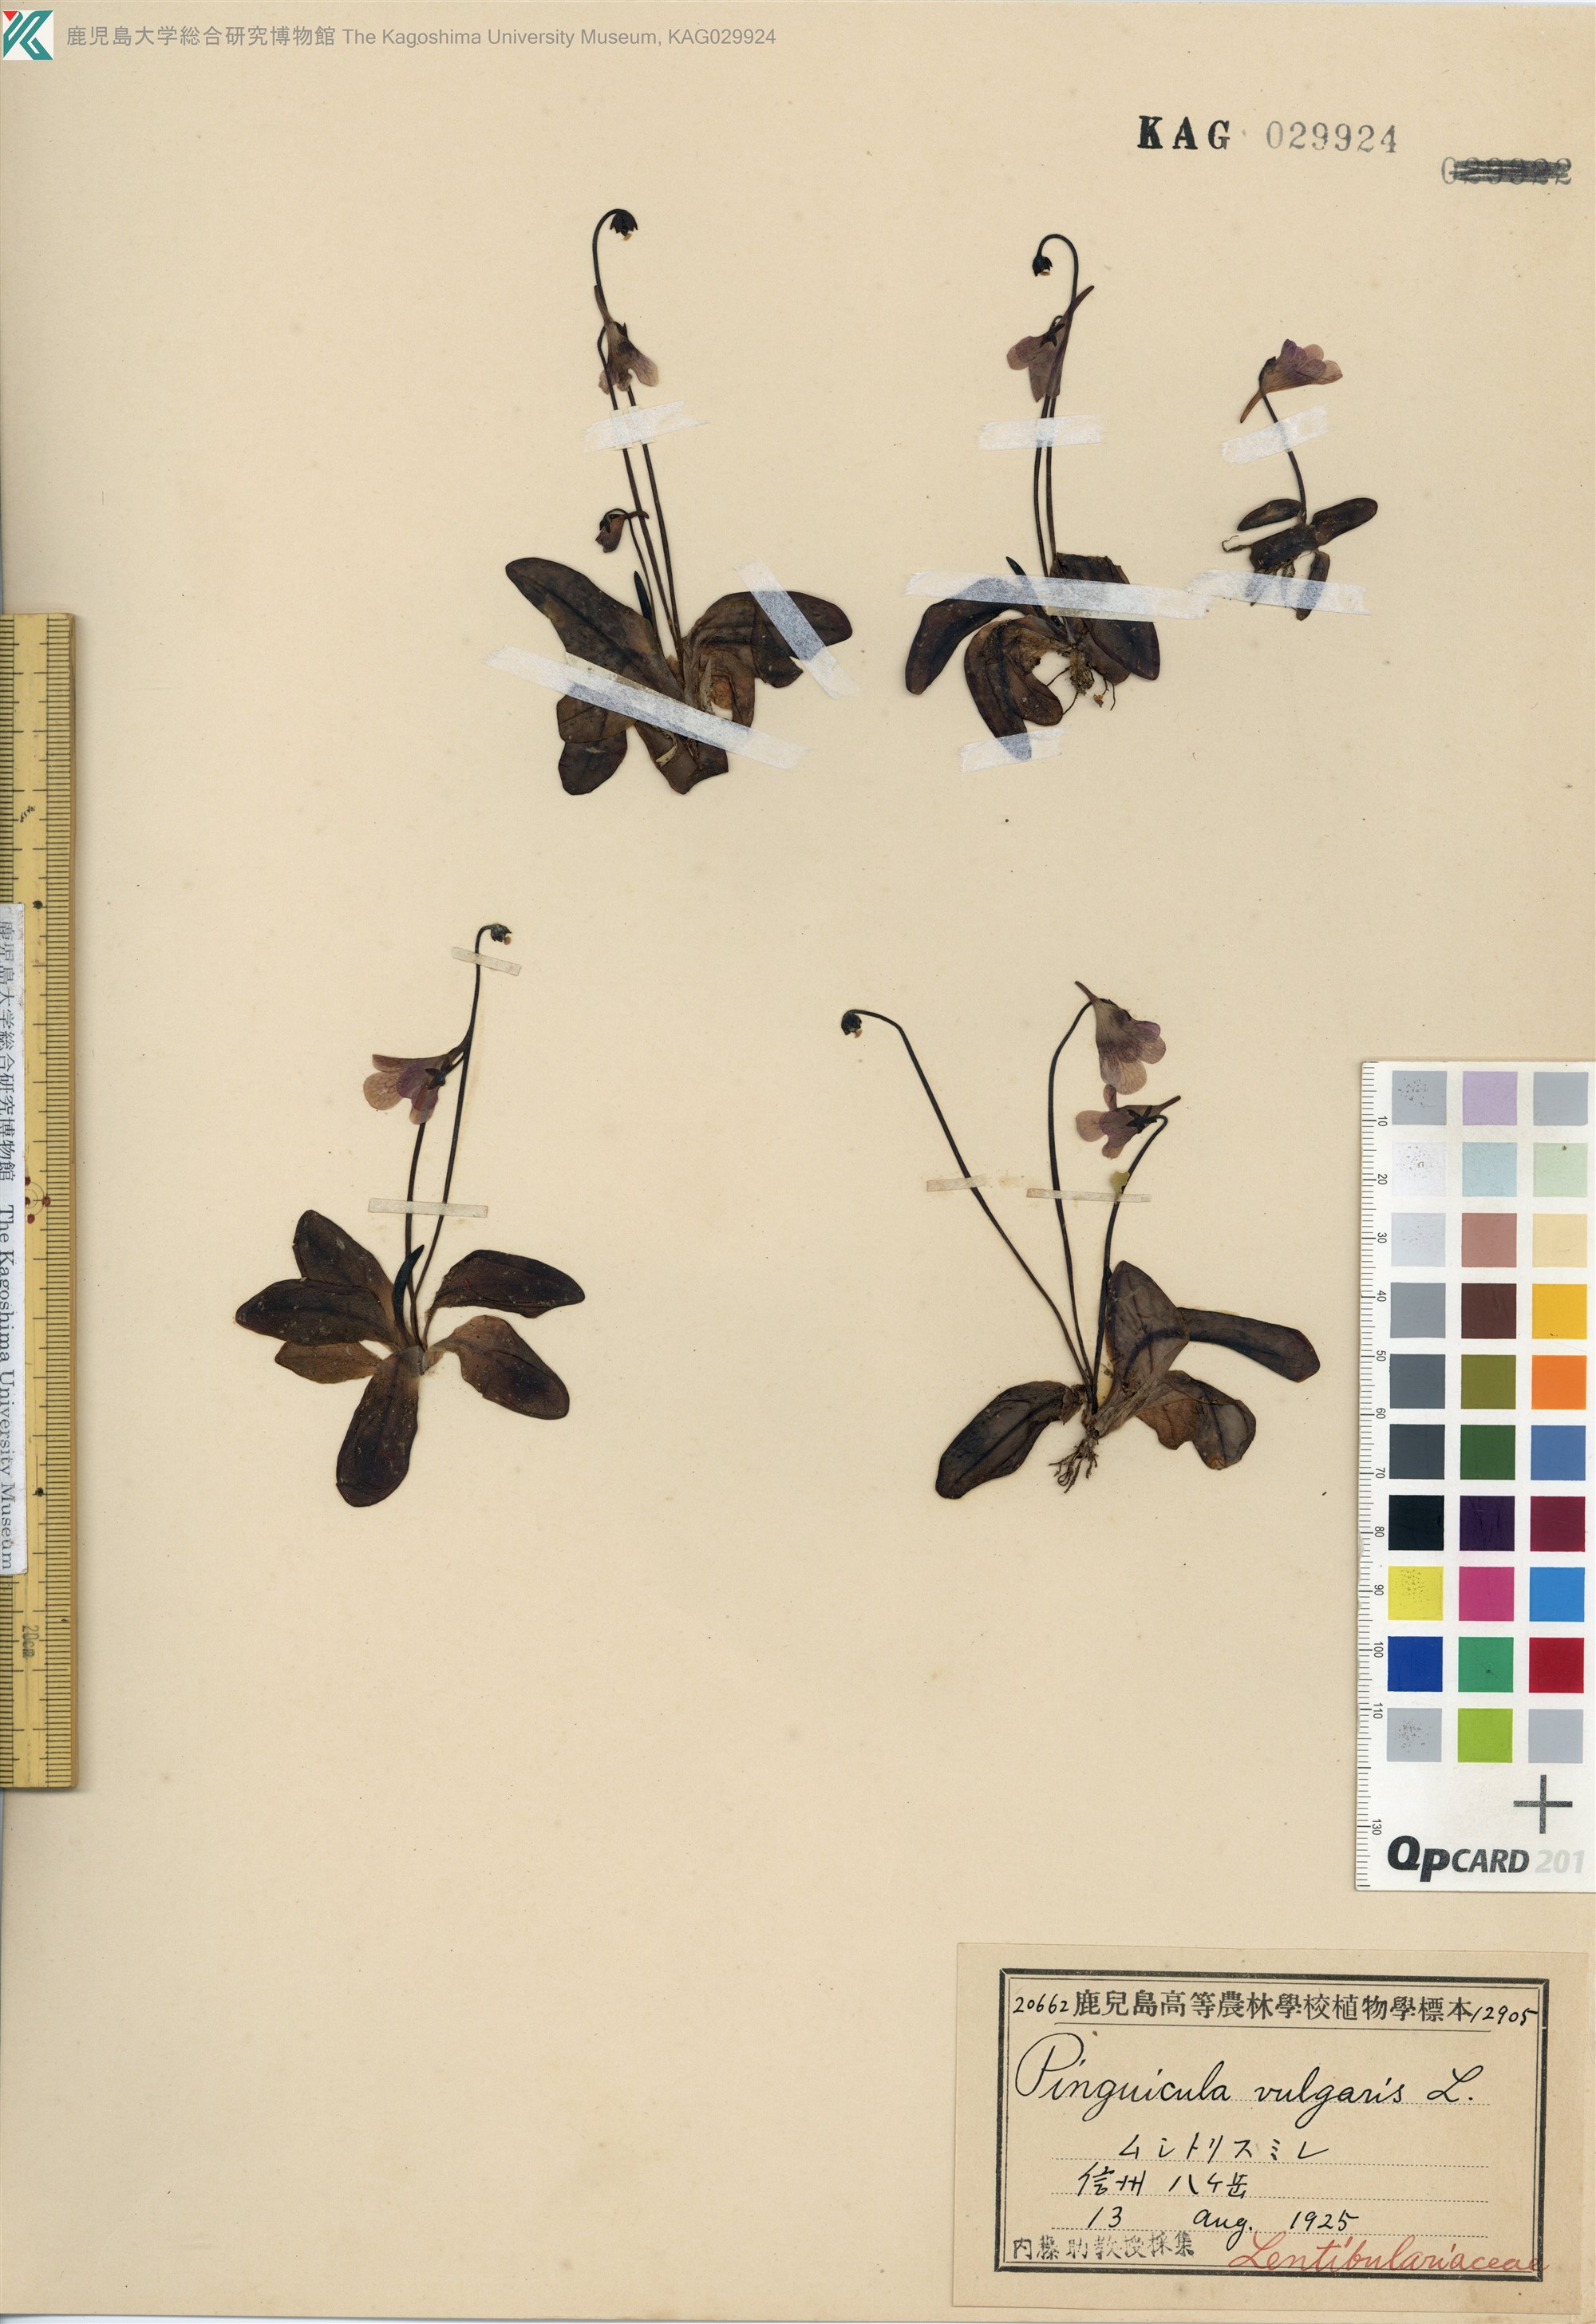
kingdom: Plantae
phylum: Tracheophyta
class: Magnoliopsida
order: Lamiales
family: Lentibulariaceae
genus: Pinguicula
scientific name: Pinguicula macroceras
